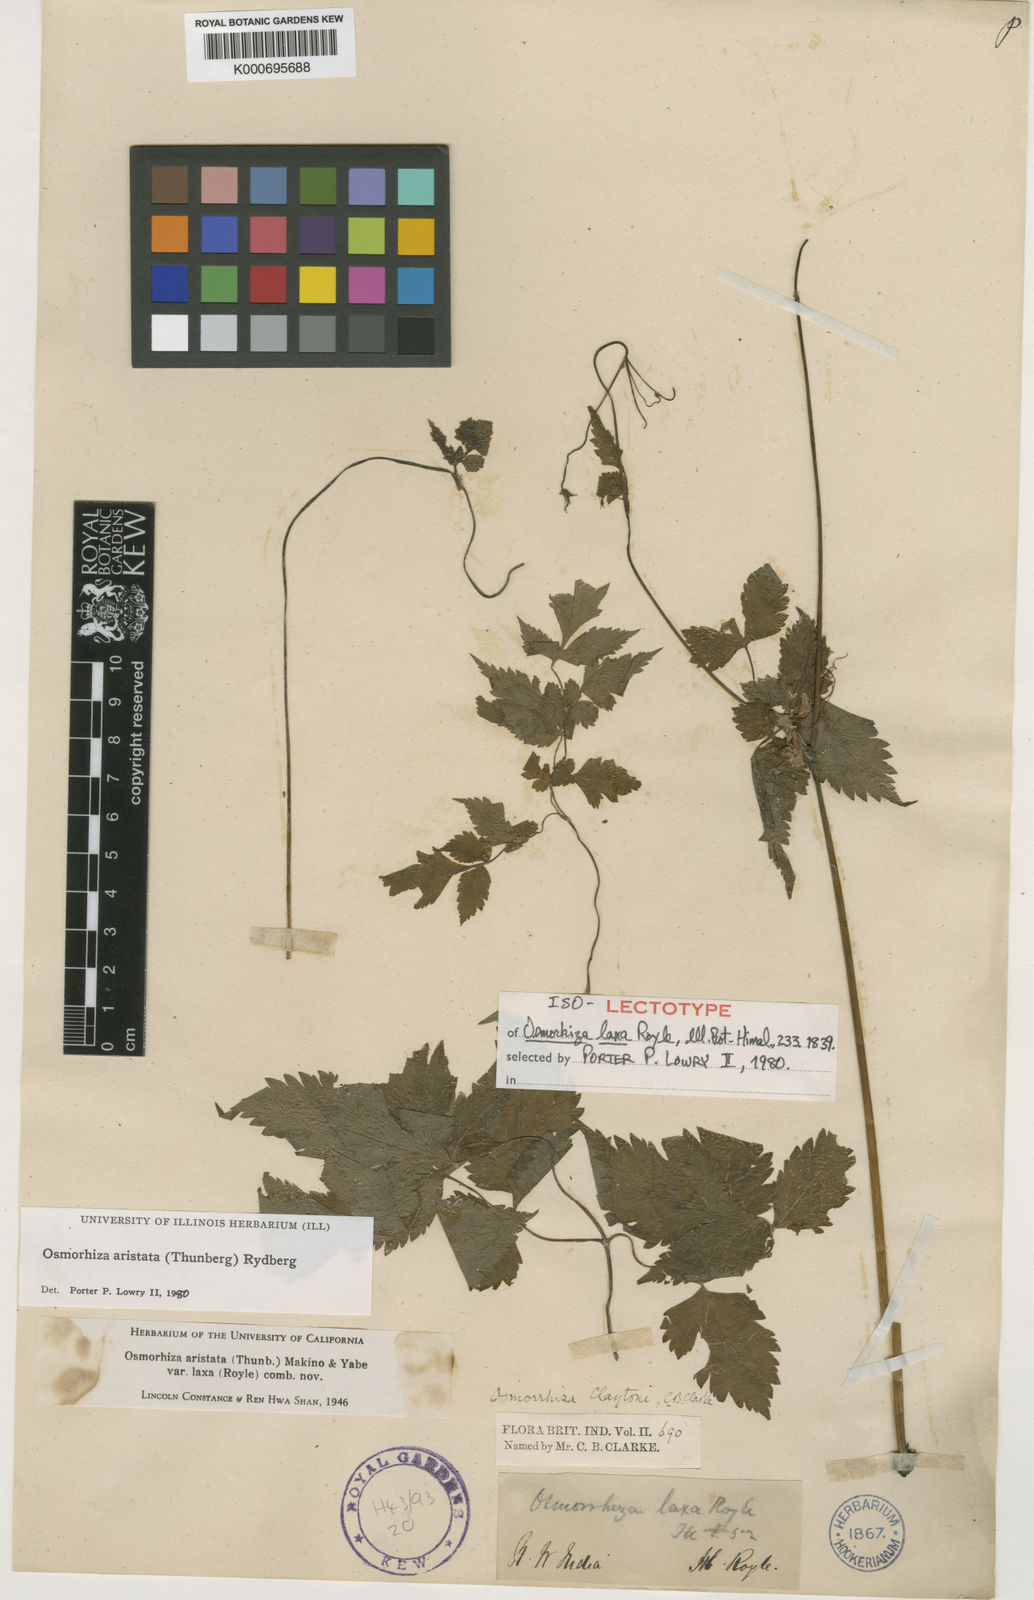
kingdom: Plantae
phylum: Tracheophyta
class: Magnoliopsida
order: Apiales
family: Apiaceae
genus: Osmorhiza
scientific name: Osmorhiza aristata
